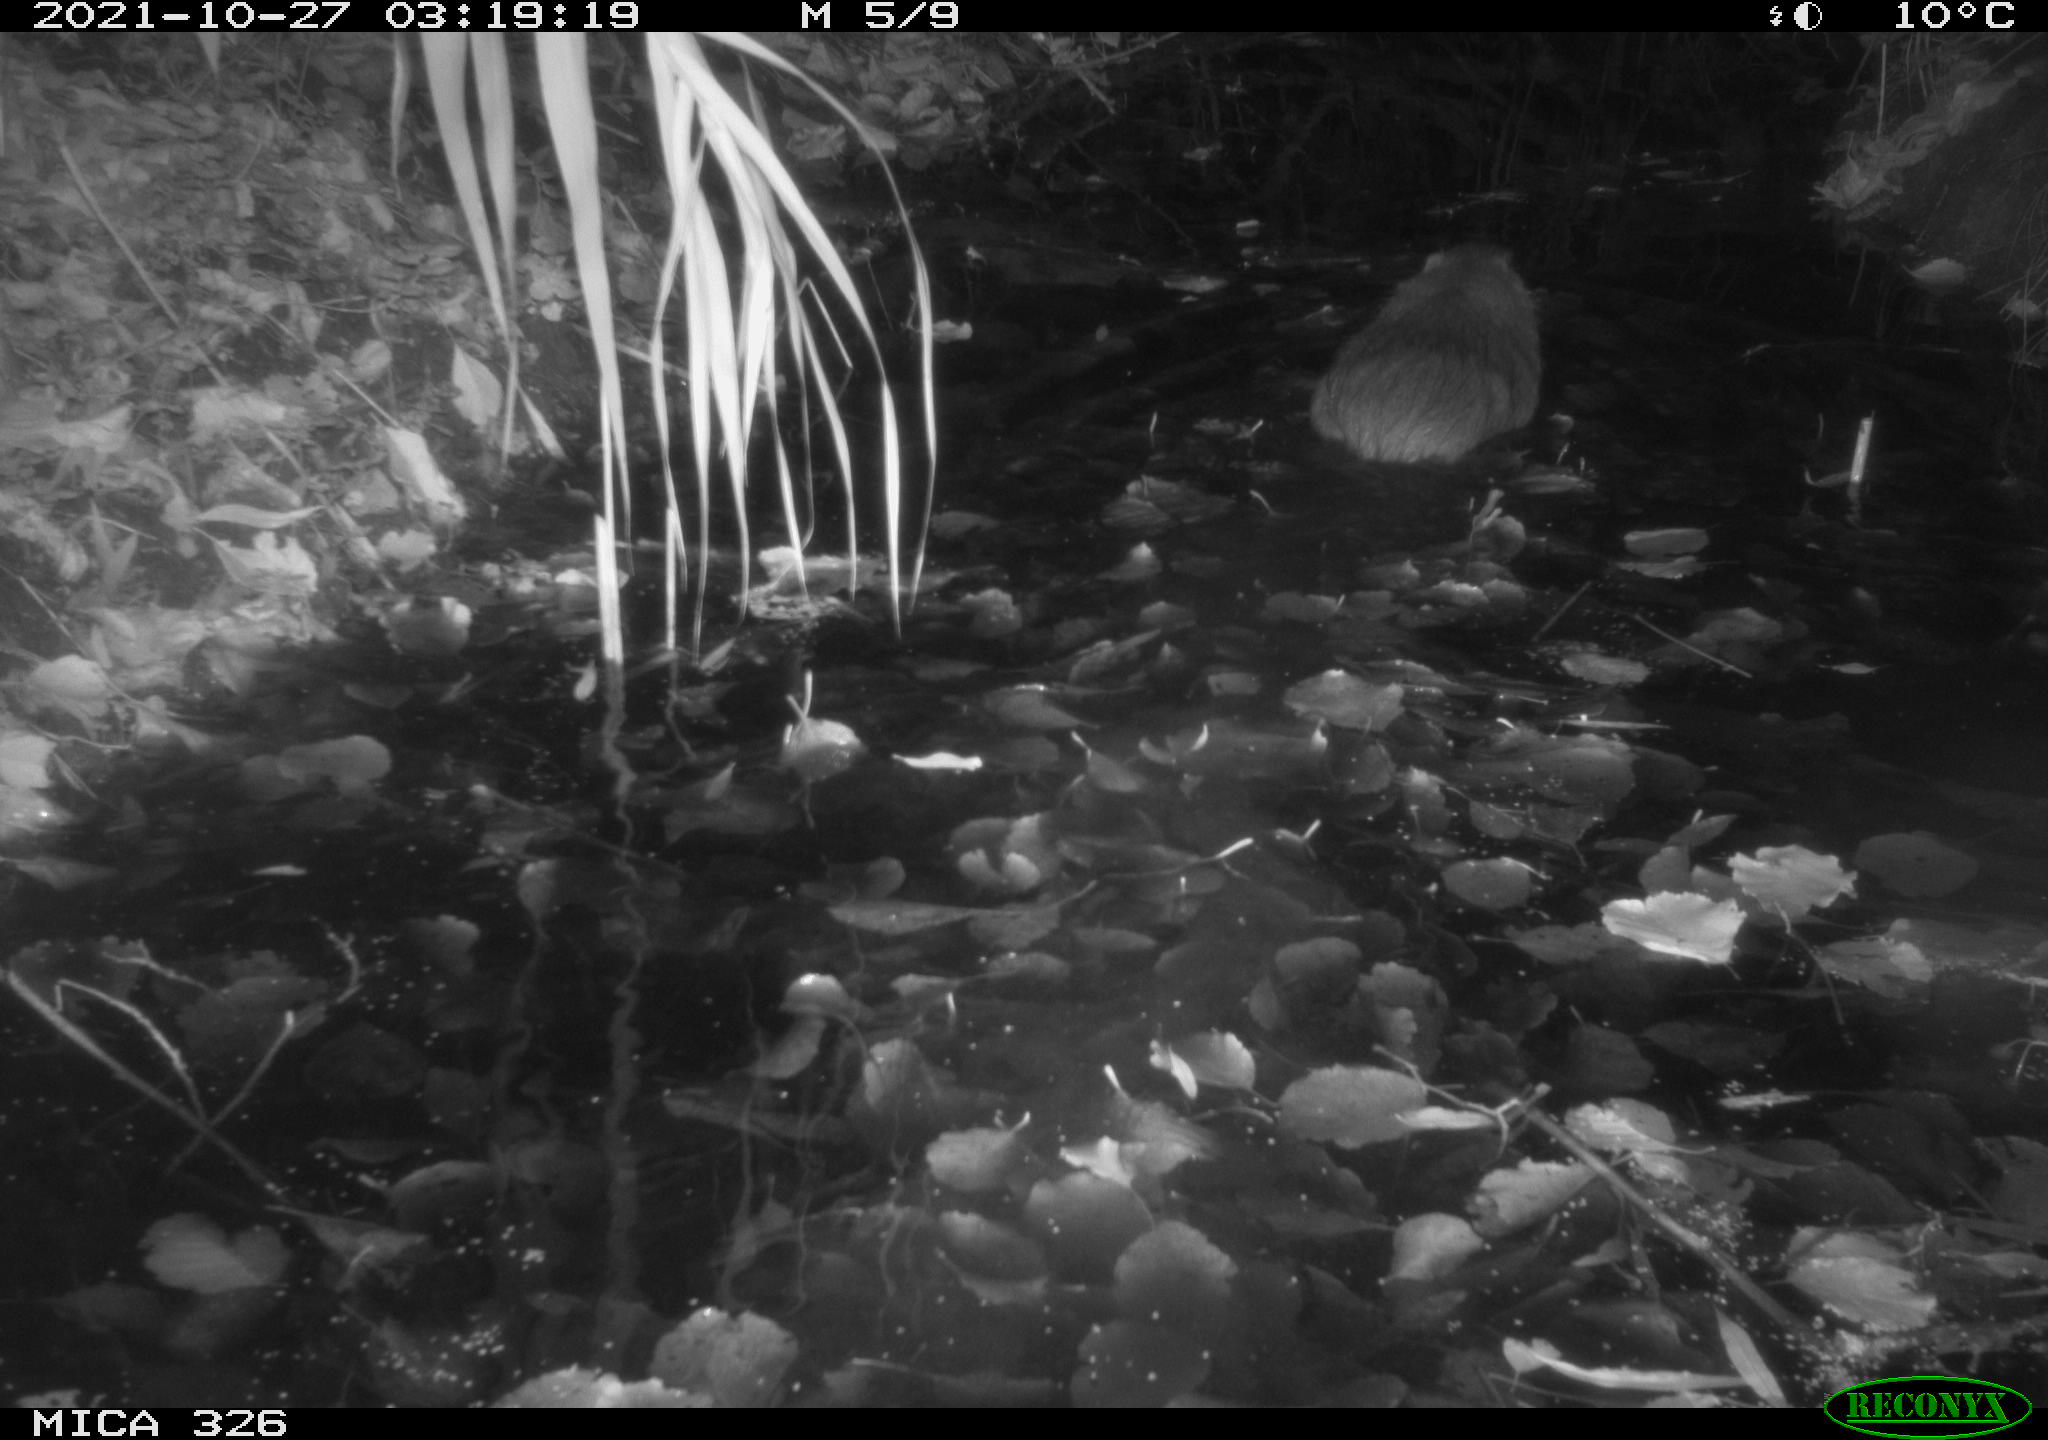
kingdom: Animalia
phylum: Chordata
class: Mammalia
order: Rodentia
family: Myocastoridae
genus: Myocastor
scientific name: Myocastor coypus
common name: Coypu
